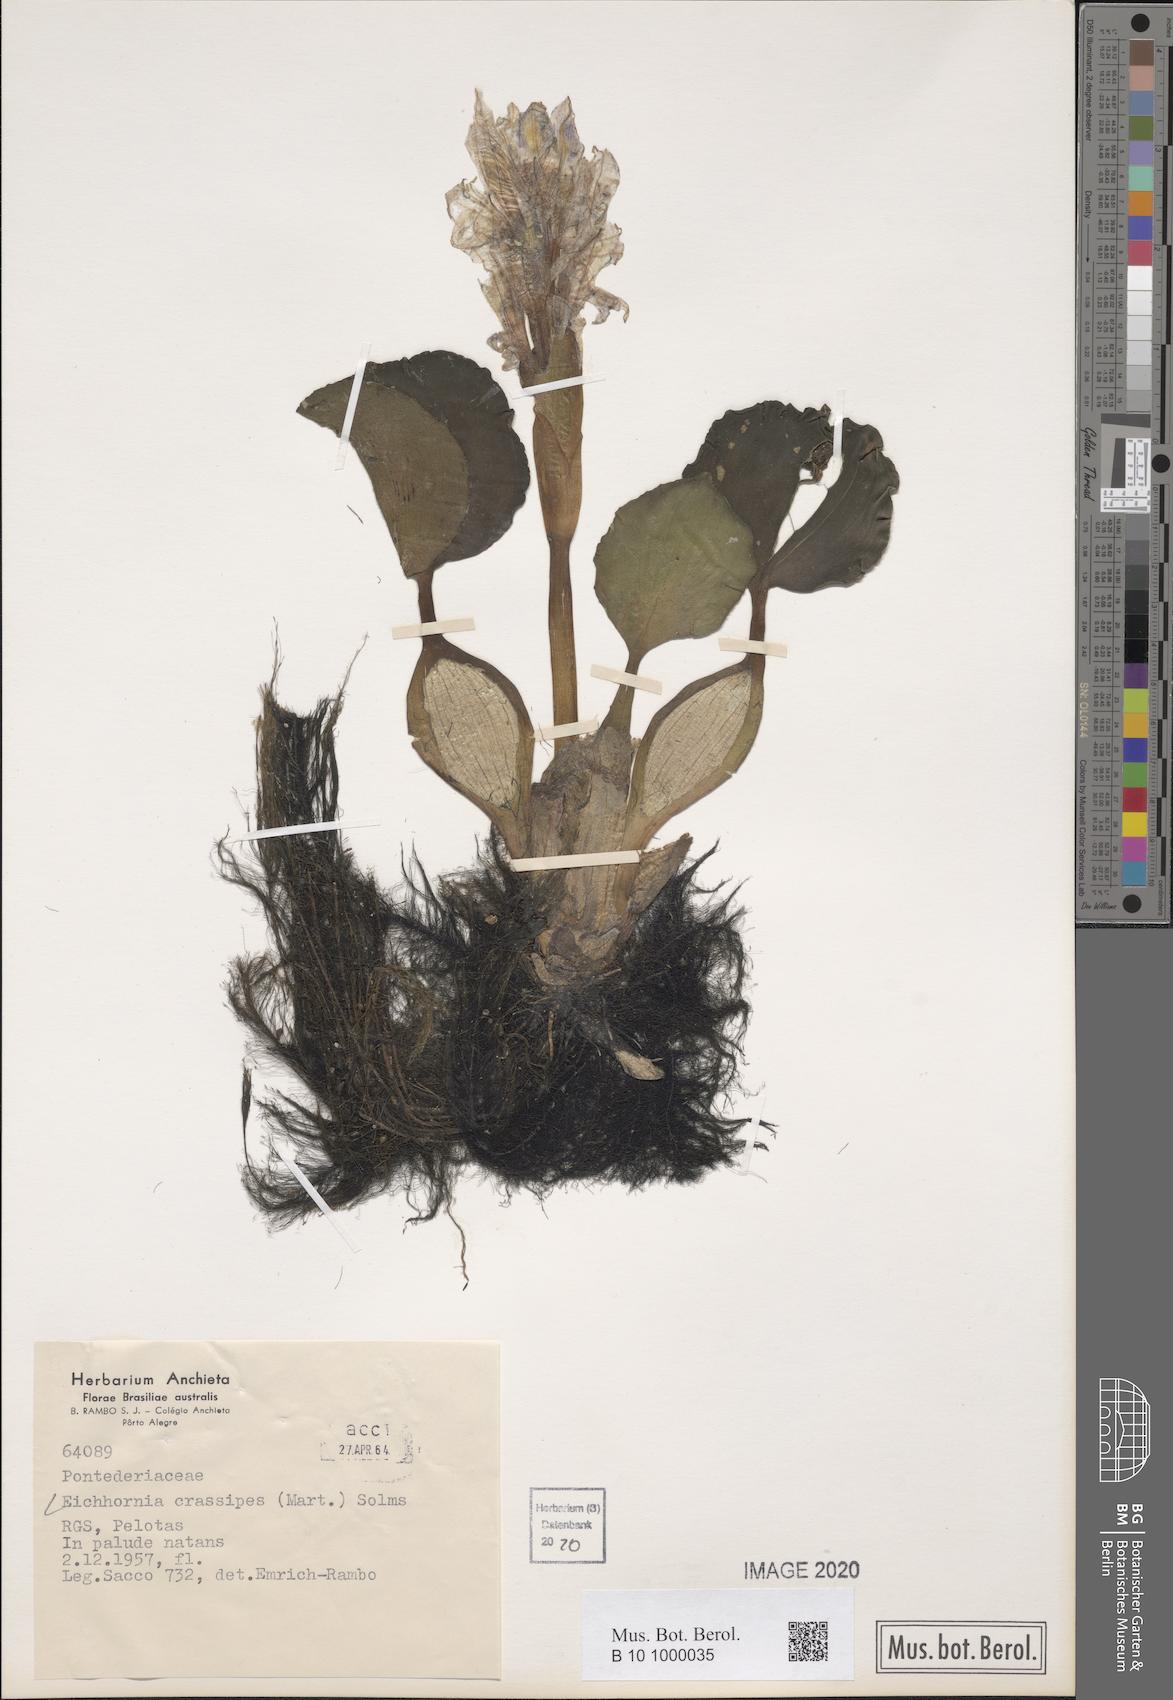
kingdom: Plantae
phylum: Tracheophyta
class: Liliopsida
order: Commelinales
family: Pontederiaceae
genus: Pontederia
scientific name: Pontederia crassipes
